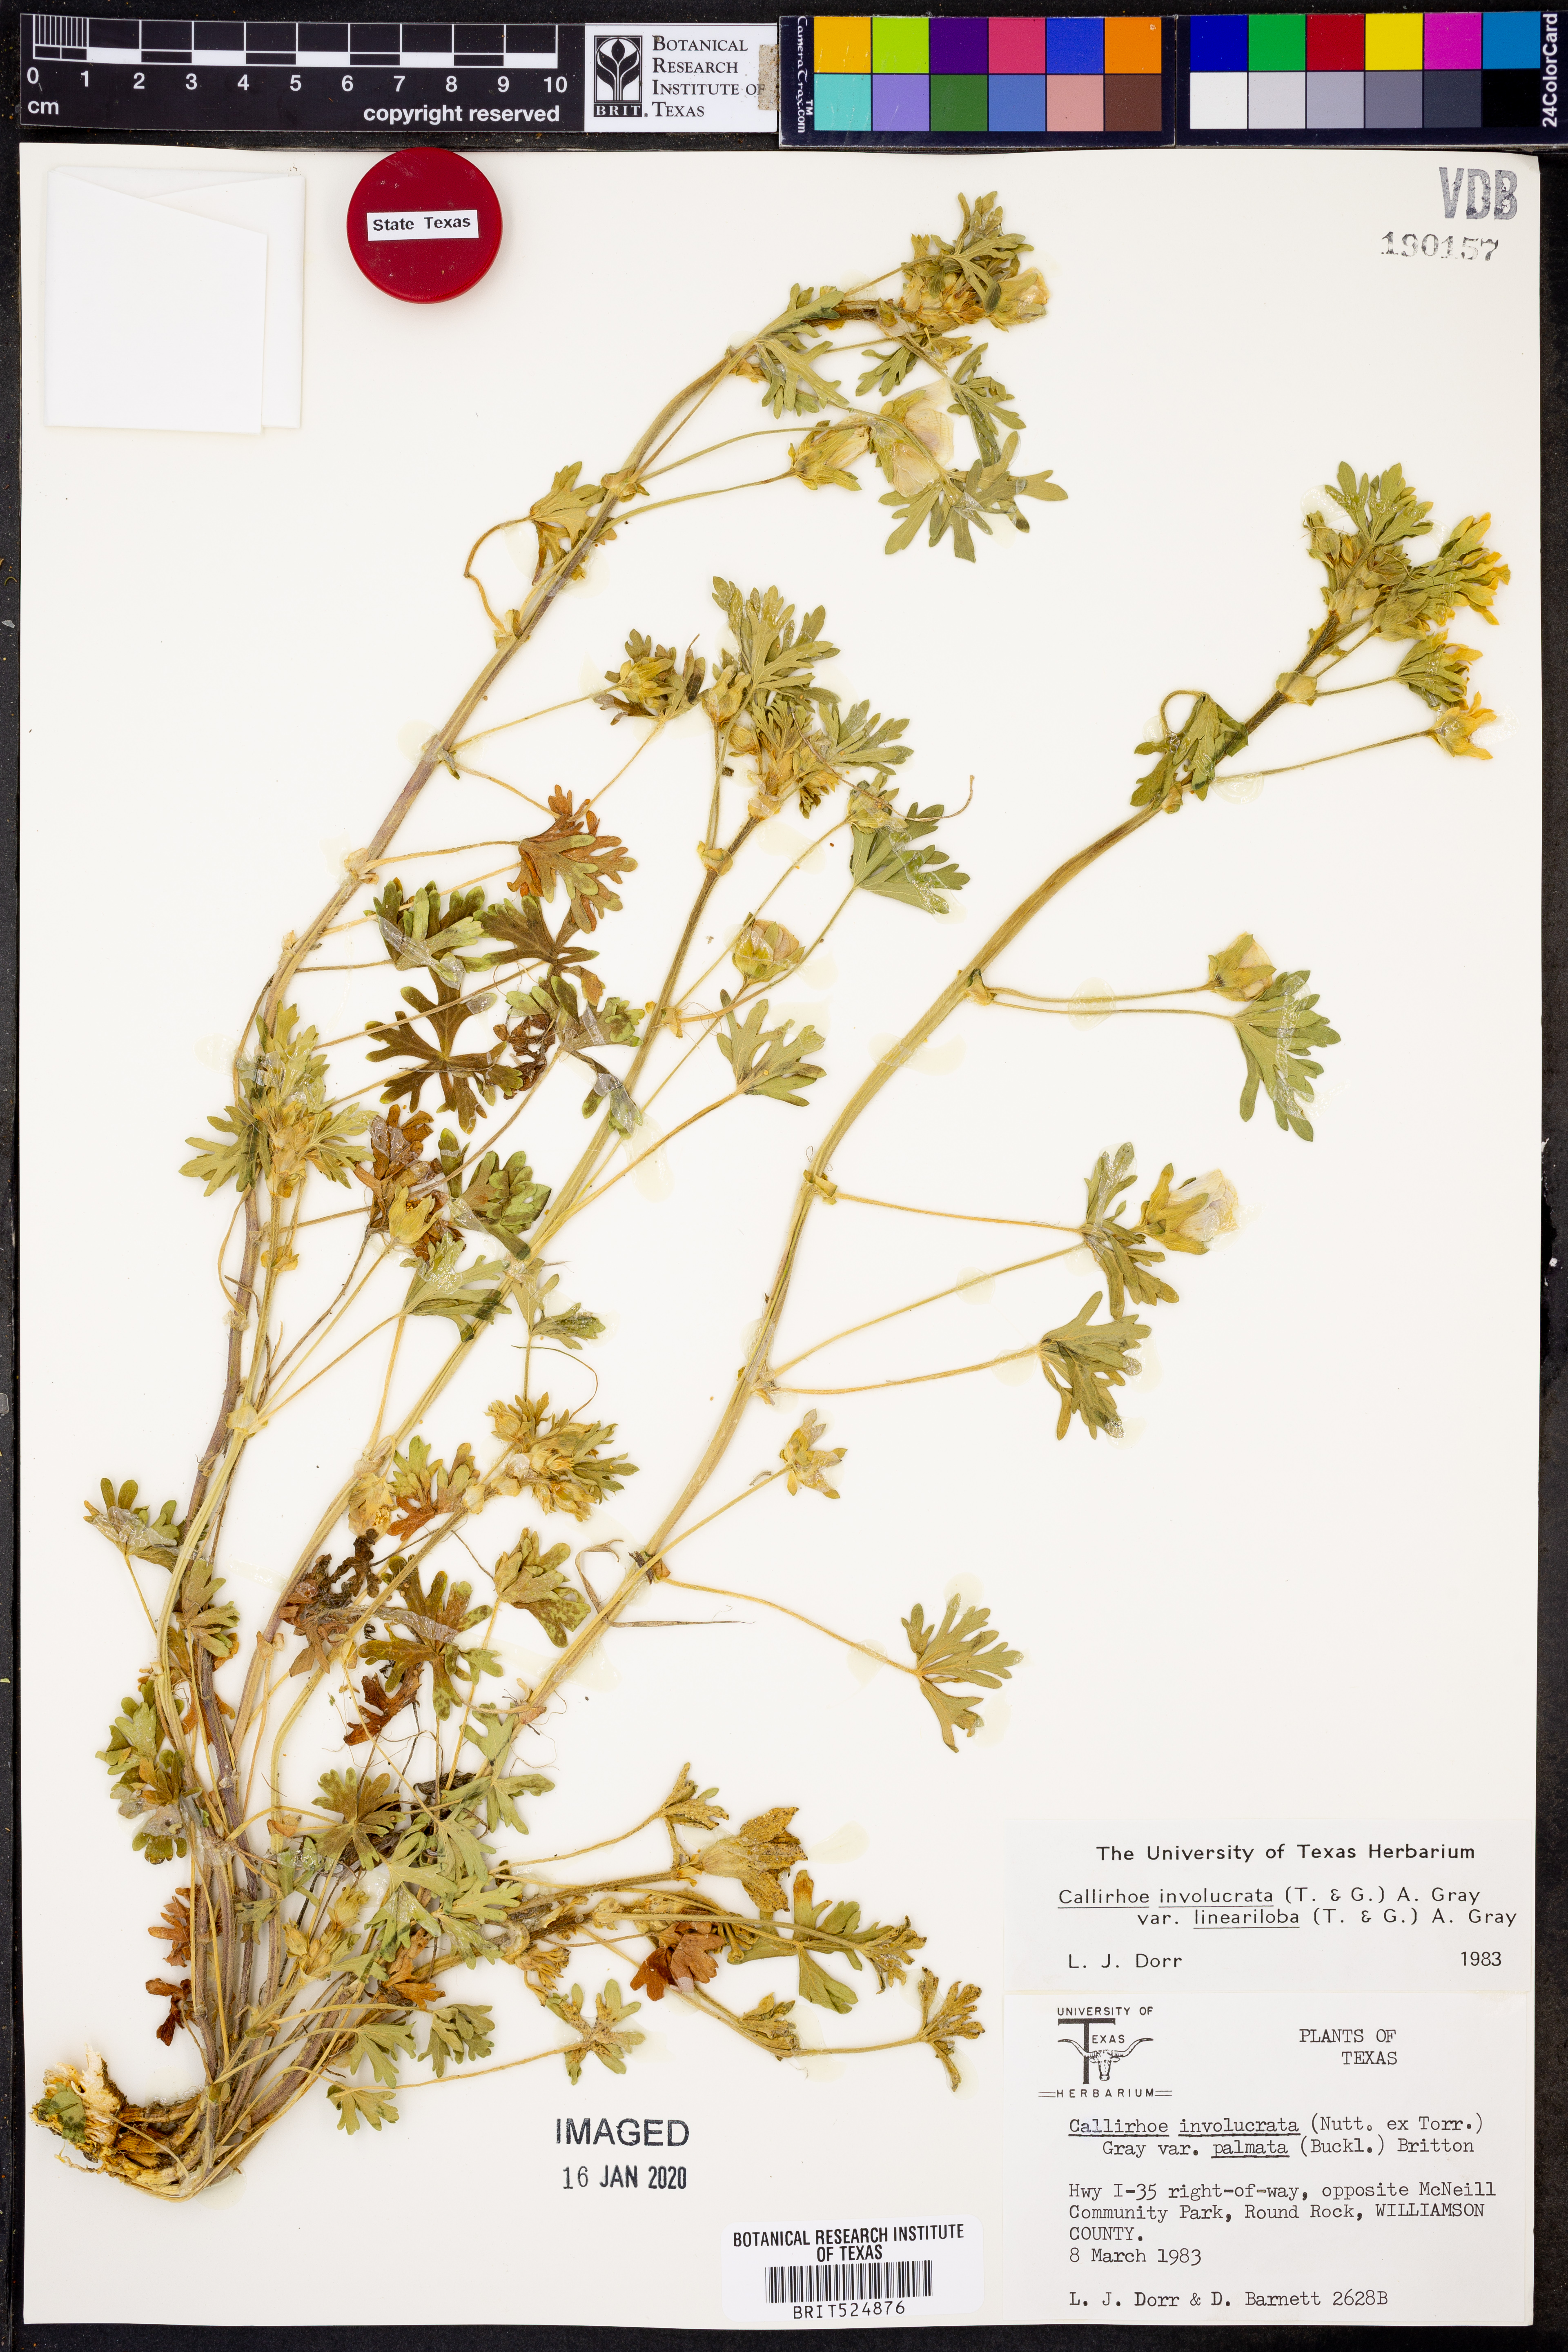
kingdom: Plantae
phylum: Tracheophyta
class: Magnoliopsida
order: Malvales
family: Malvaceae
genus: Callirhoe
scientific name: Callirhoe involucrata
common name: Purple poppy-mallow
